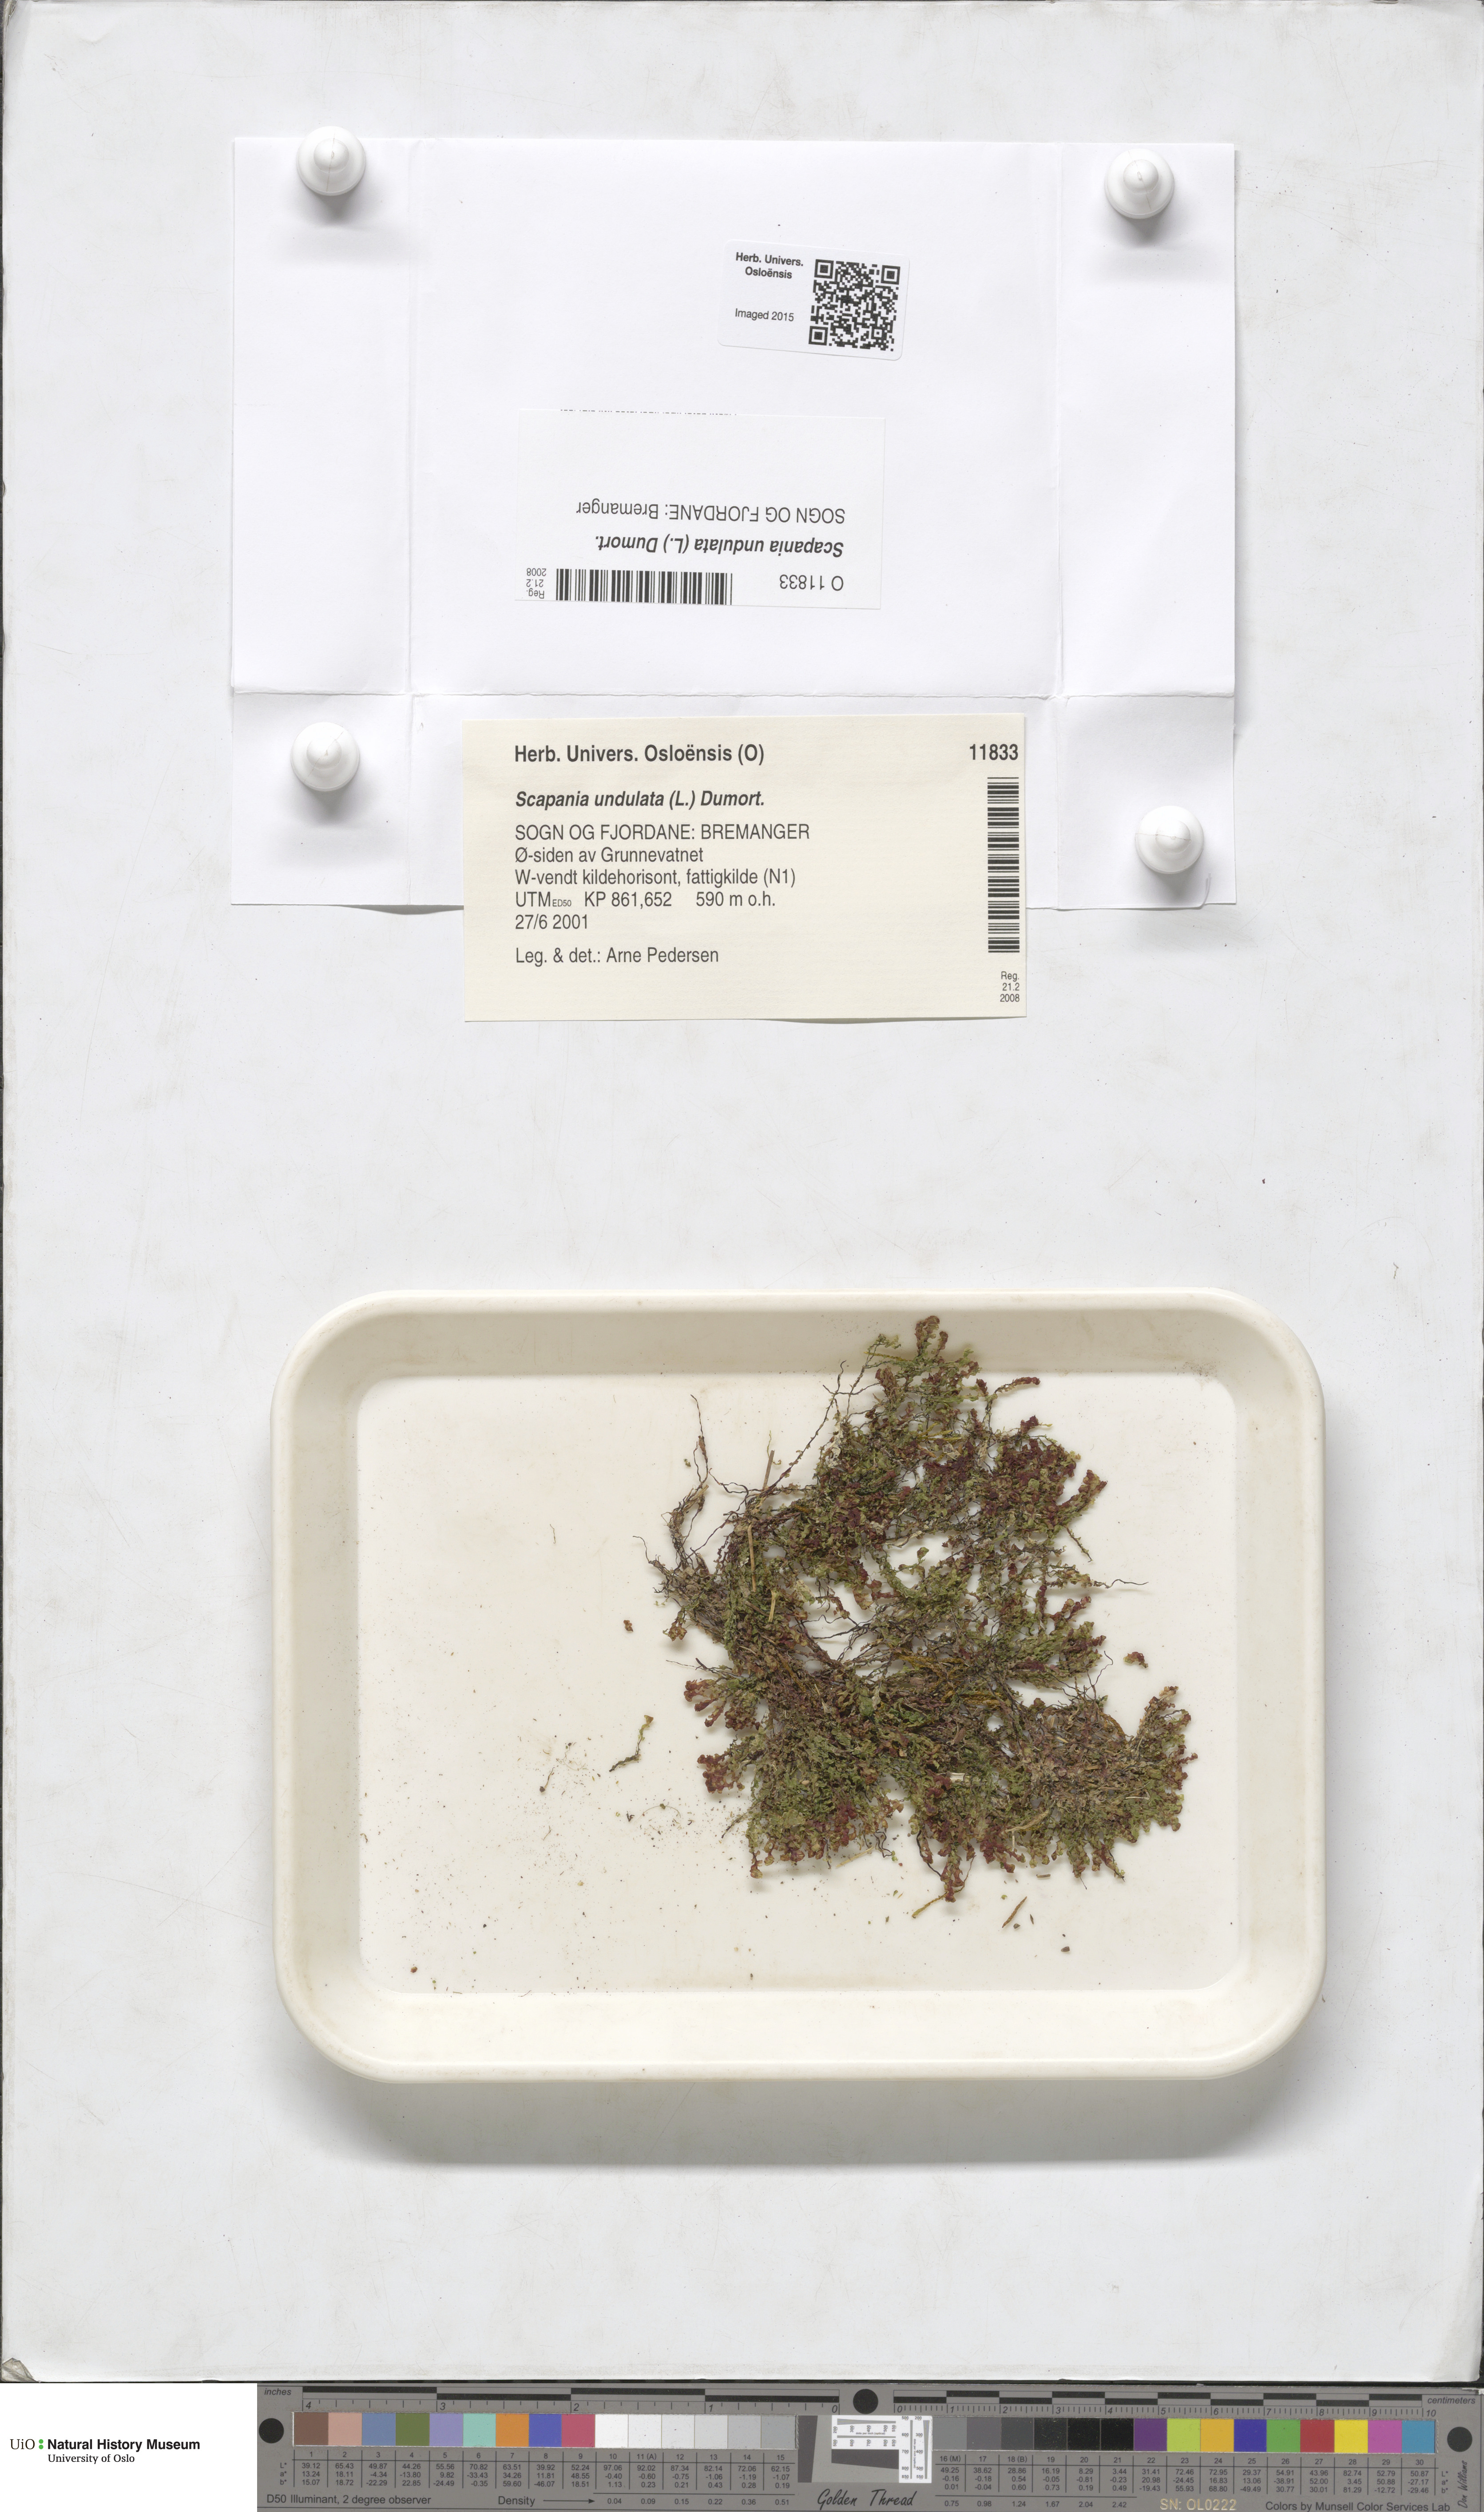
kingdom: Plantae
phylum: Marchantiophyta
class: Jungermanniopsida
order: Jungermanniales
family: Scapaniaceae
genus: Scapania
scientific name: Scapania undulata
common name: Water earwort
